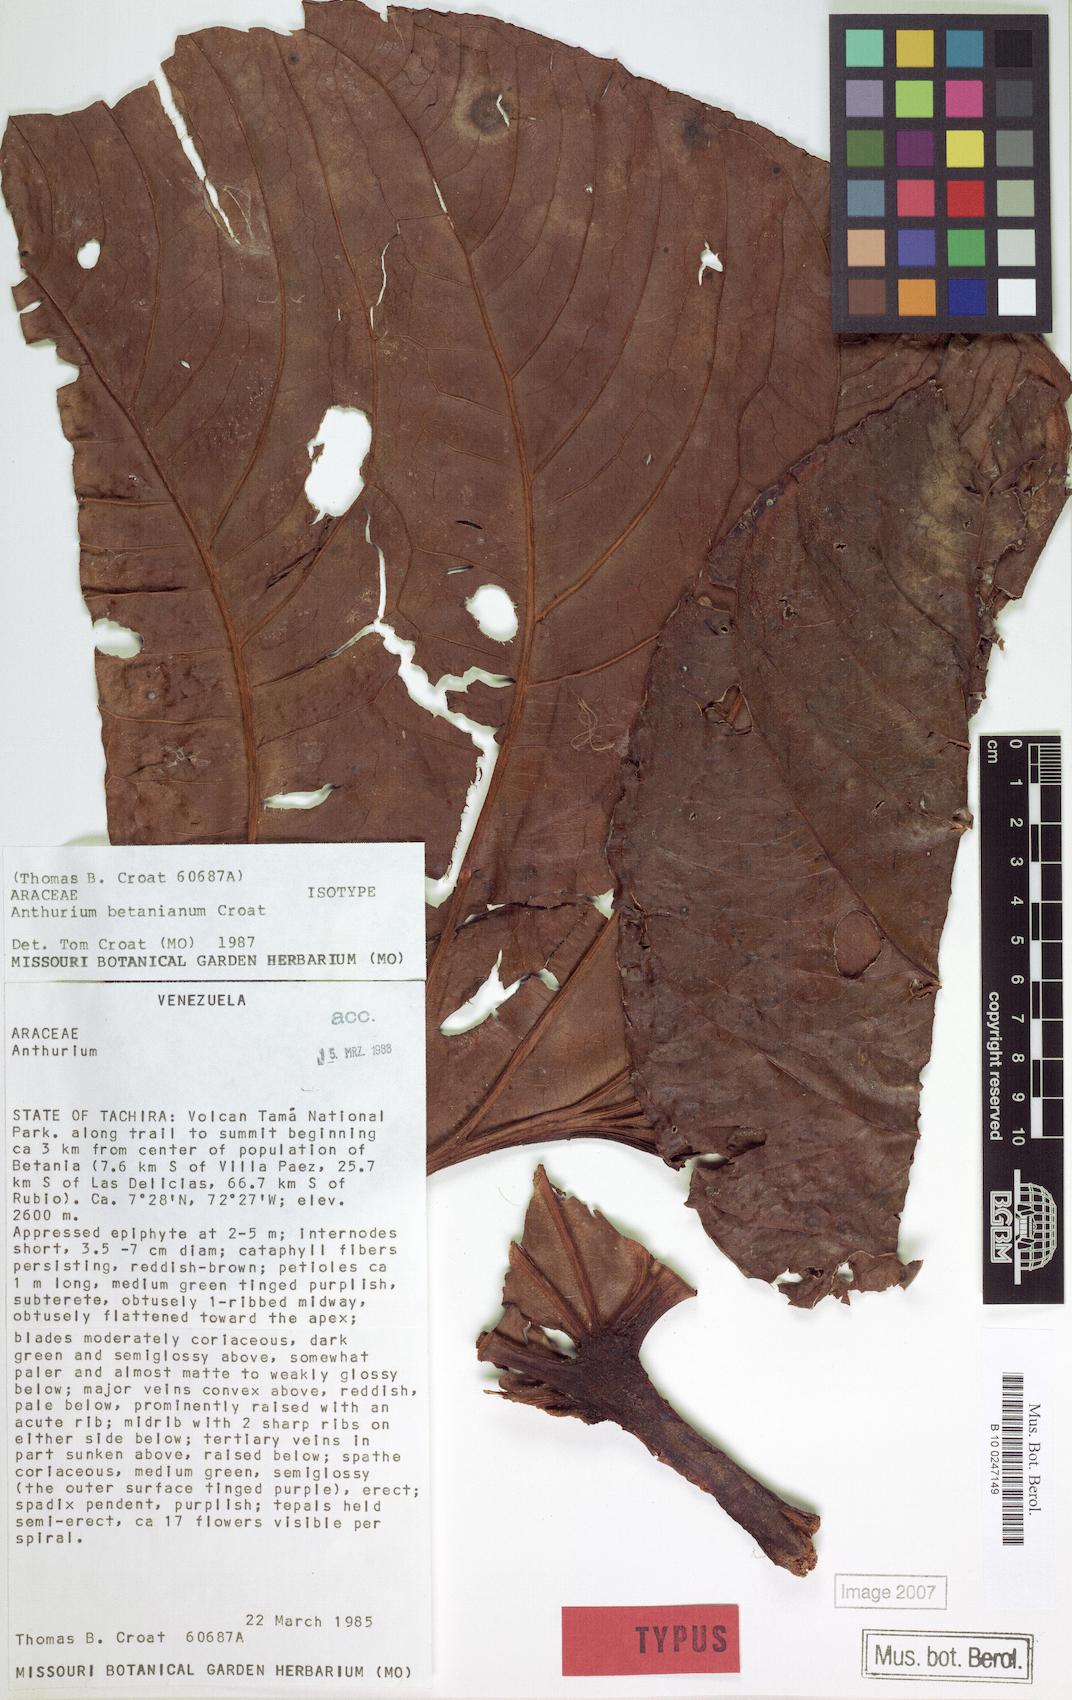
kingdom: Plantae
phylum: Tracheophyta
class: Liliopsida
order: Alismatales
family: Araceae
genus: Anthurium
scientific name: Anthurium betanianum
